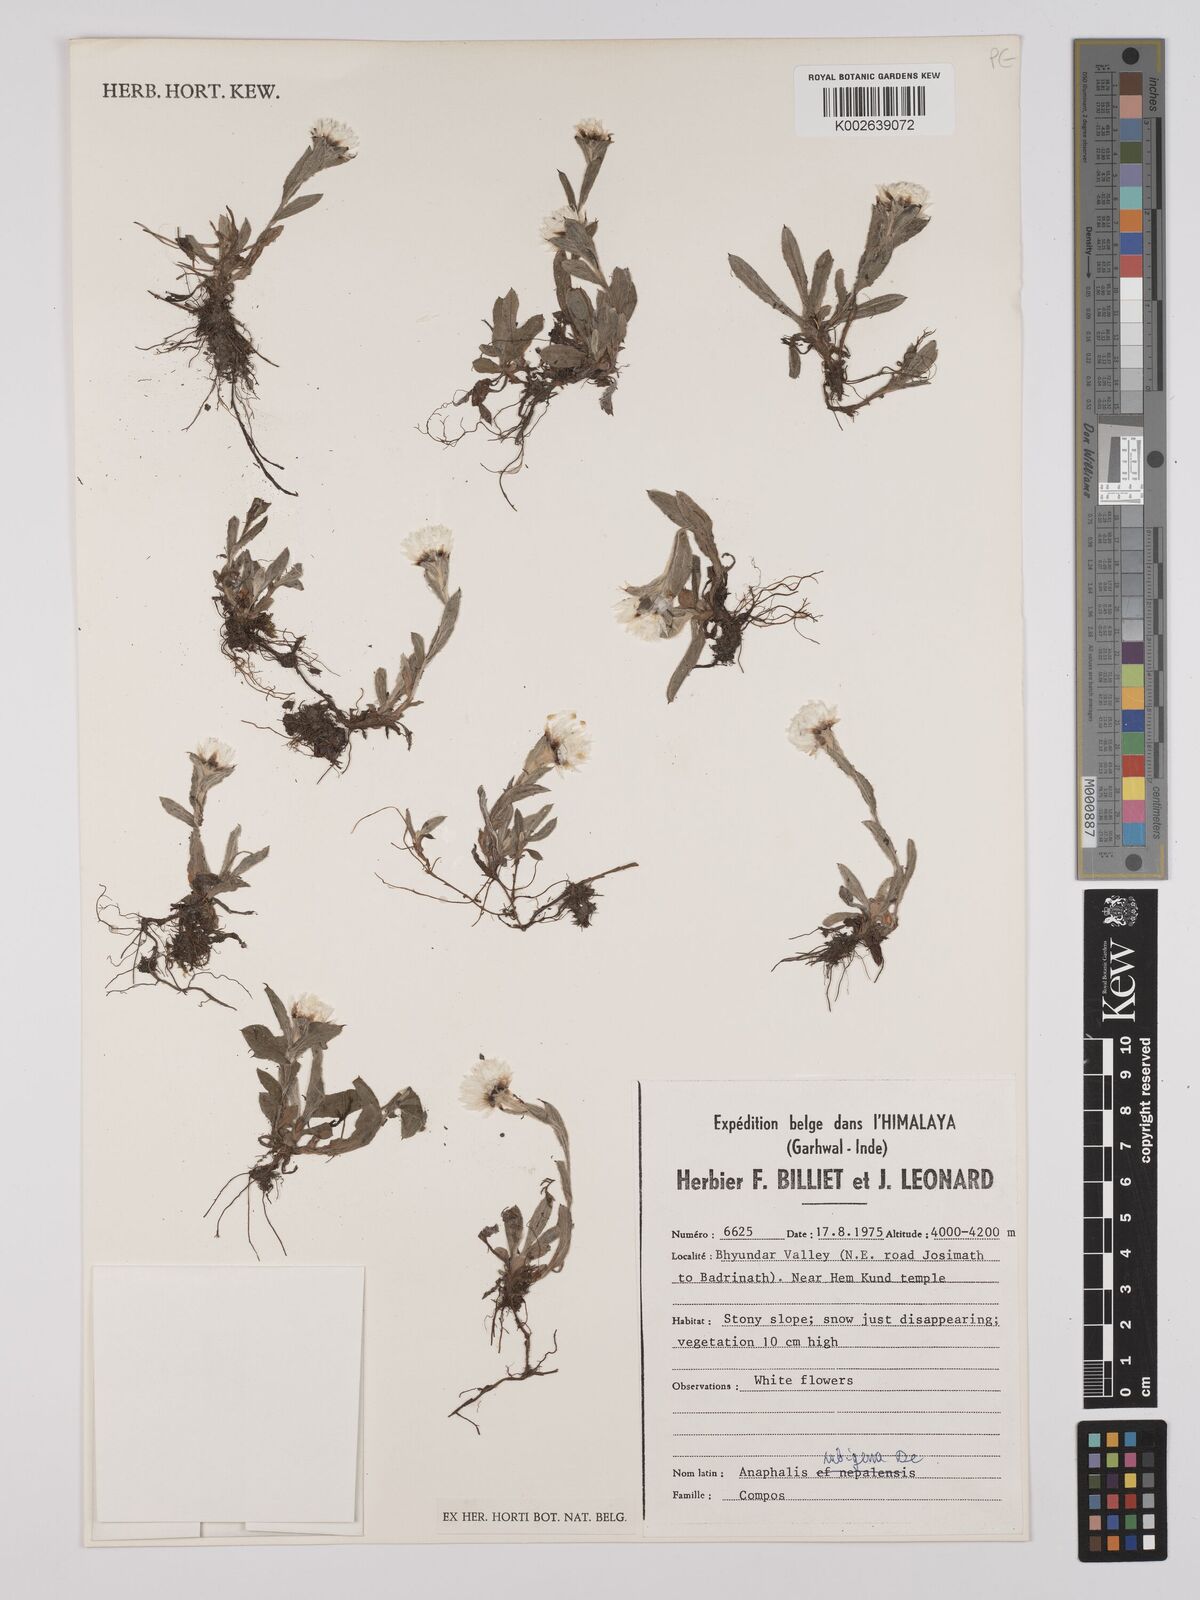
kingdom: Plantae
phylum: Tracheophyta
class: Magnoliopsida
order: Asterales
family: Asteraceae
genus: Anaphalis
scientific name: Anaphalis nepalensis
